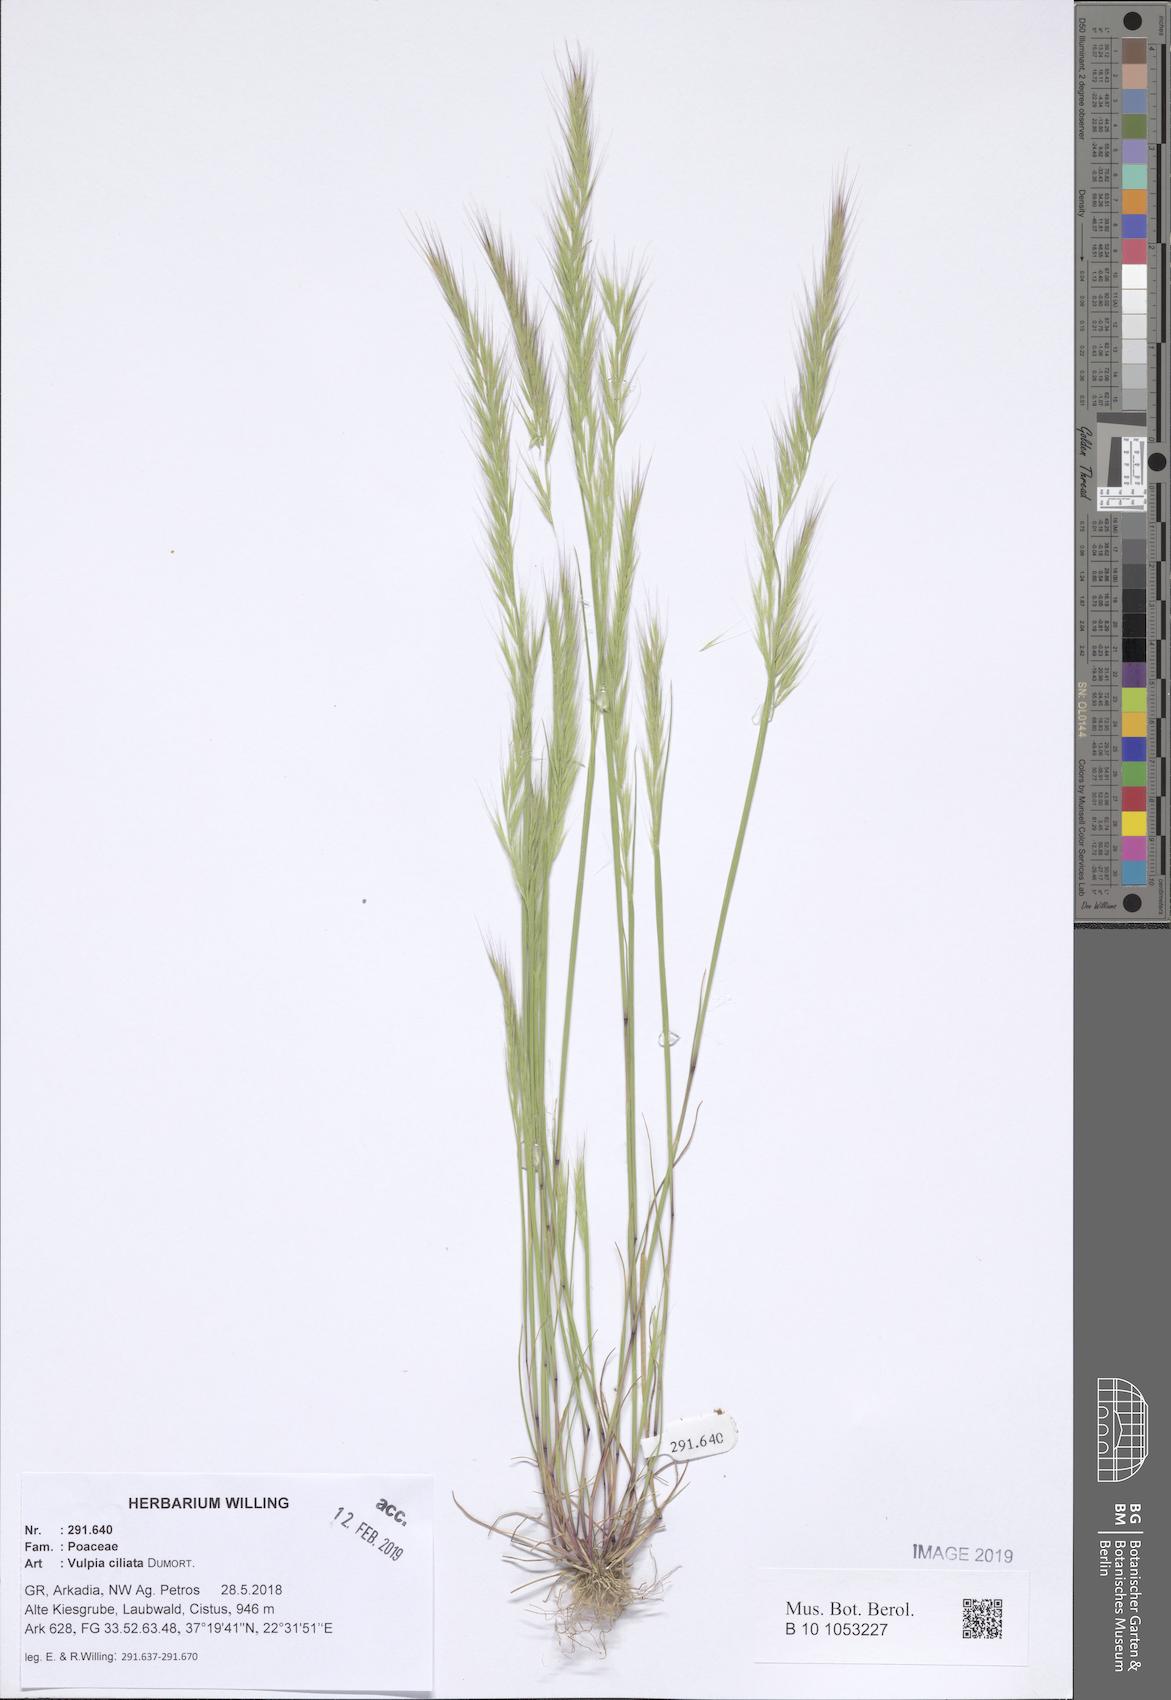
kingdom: Plantae
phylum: Tracheophyta
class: Liliopsida
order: Poales
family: Poaceae
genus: Festuca
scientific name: Festuca ambigua
